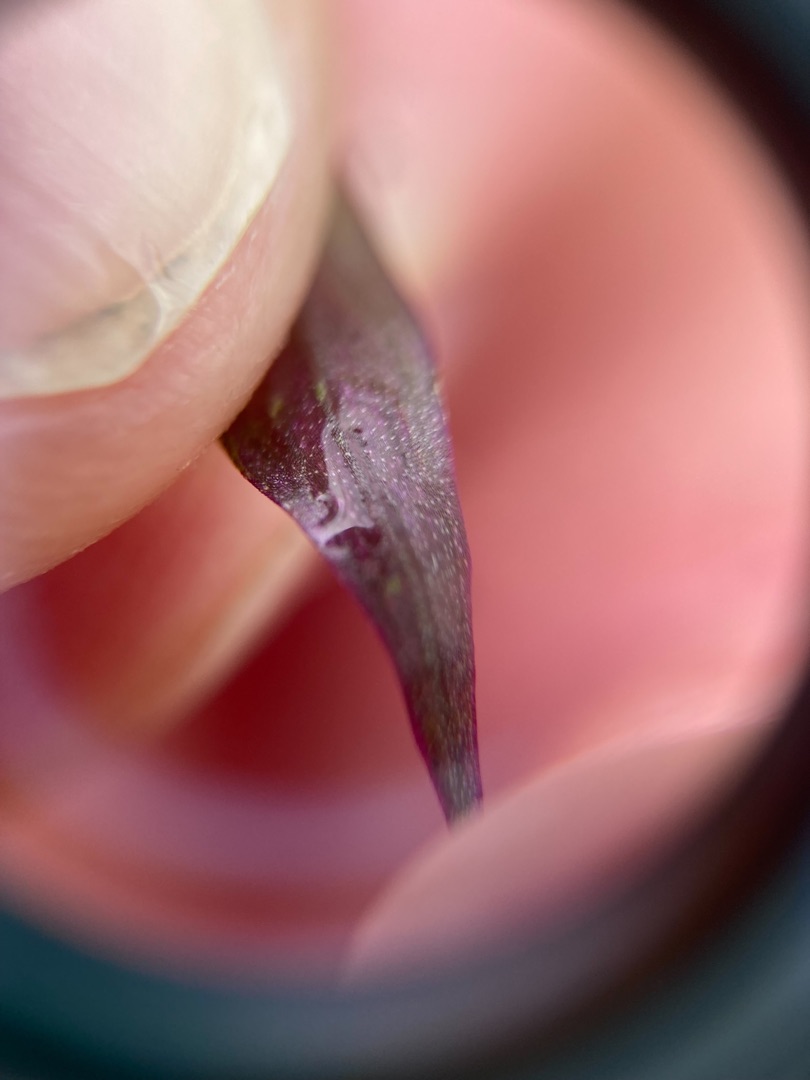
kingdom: Plantae
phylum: Tracheophyta
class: Liliopsida
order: Asparagales
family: Orchidaceae
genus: Dactylorhiza
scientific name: Dactylorhiza majalis
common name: Maj-gøgeurt
